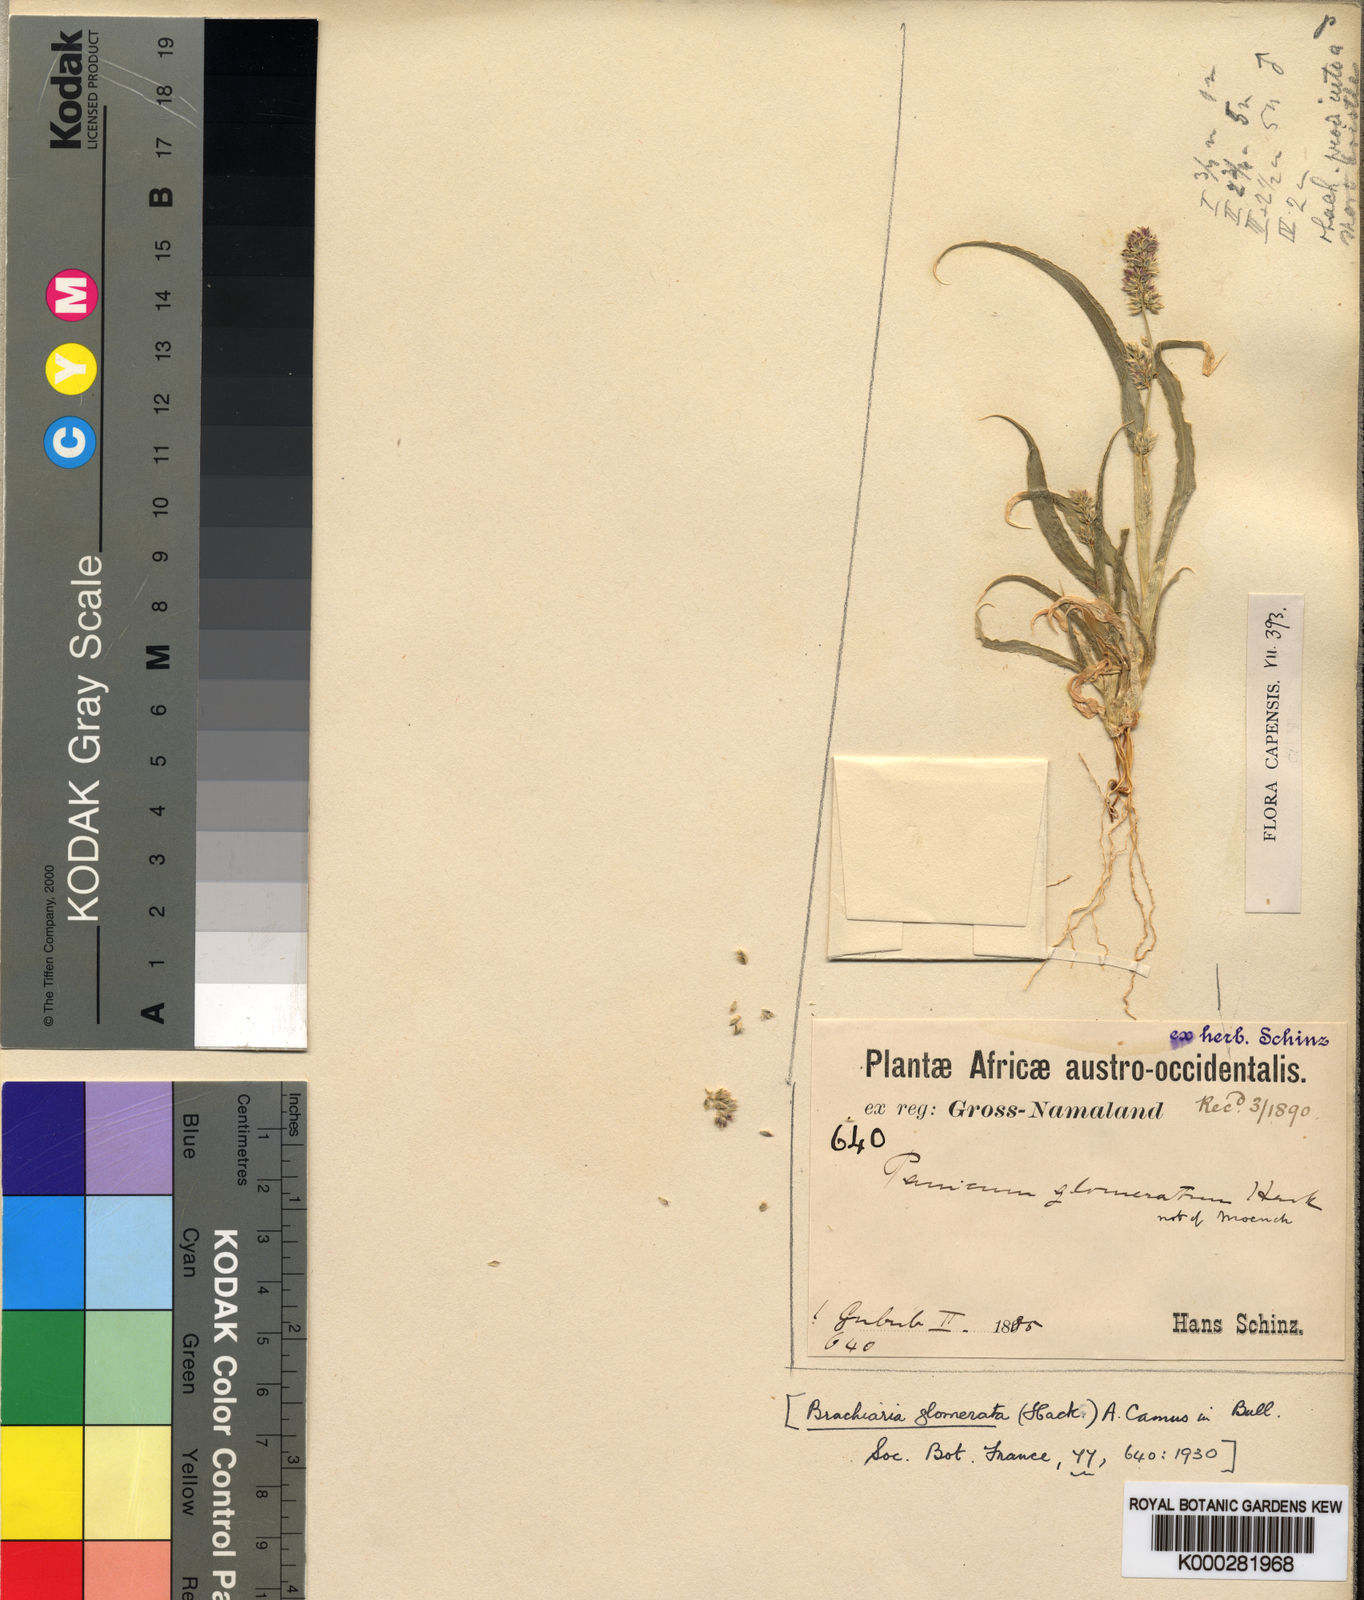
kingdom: Plantae
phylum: Tracheophyta
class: Liliopsida
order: Poales
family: Poaceae
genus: Urochloa
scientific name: Urochloa Brachiaria glomerata
